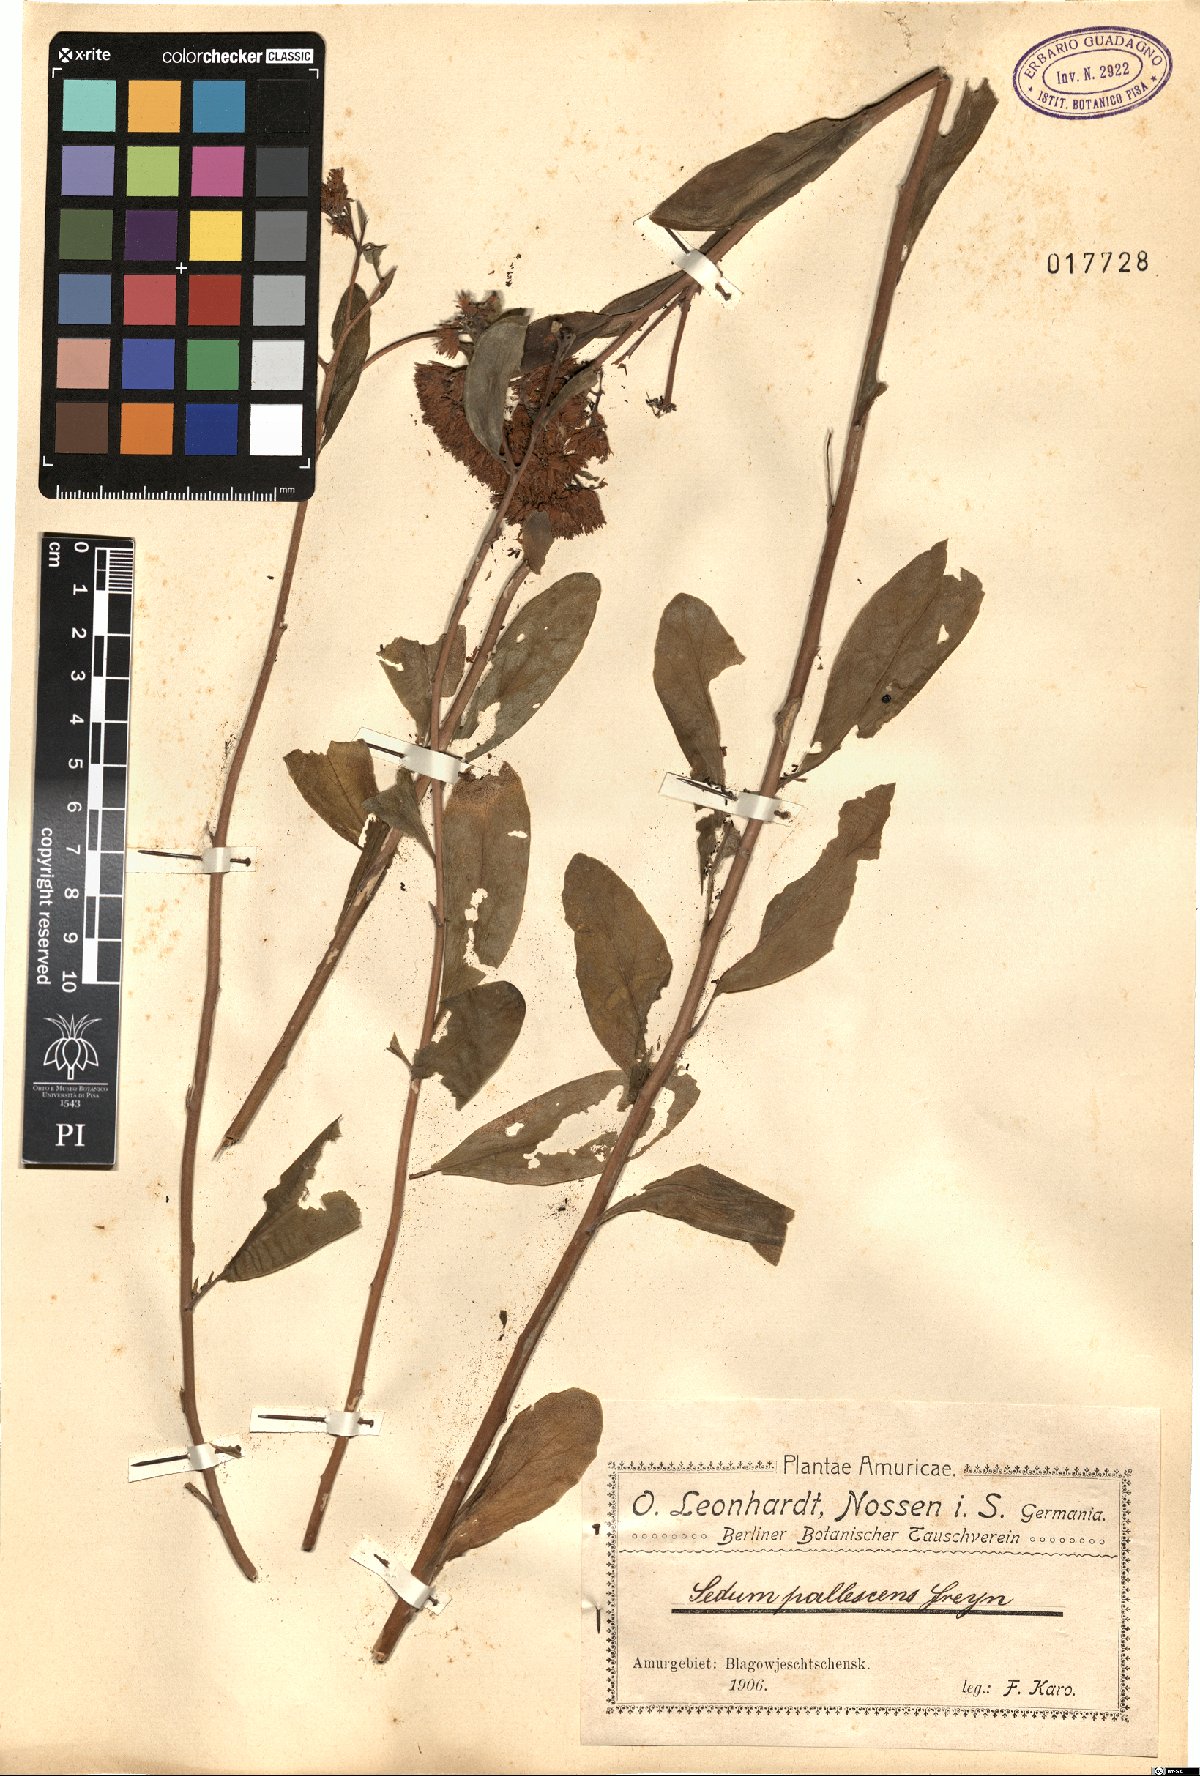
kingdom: Plantae
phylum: Tracheophyta
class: Magnoliopsida
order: Saxifragales
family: Crassulaceae
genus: Hylotelephium
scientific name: Hylotelephium pallescens
